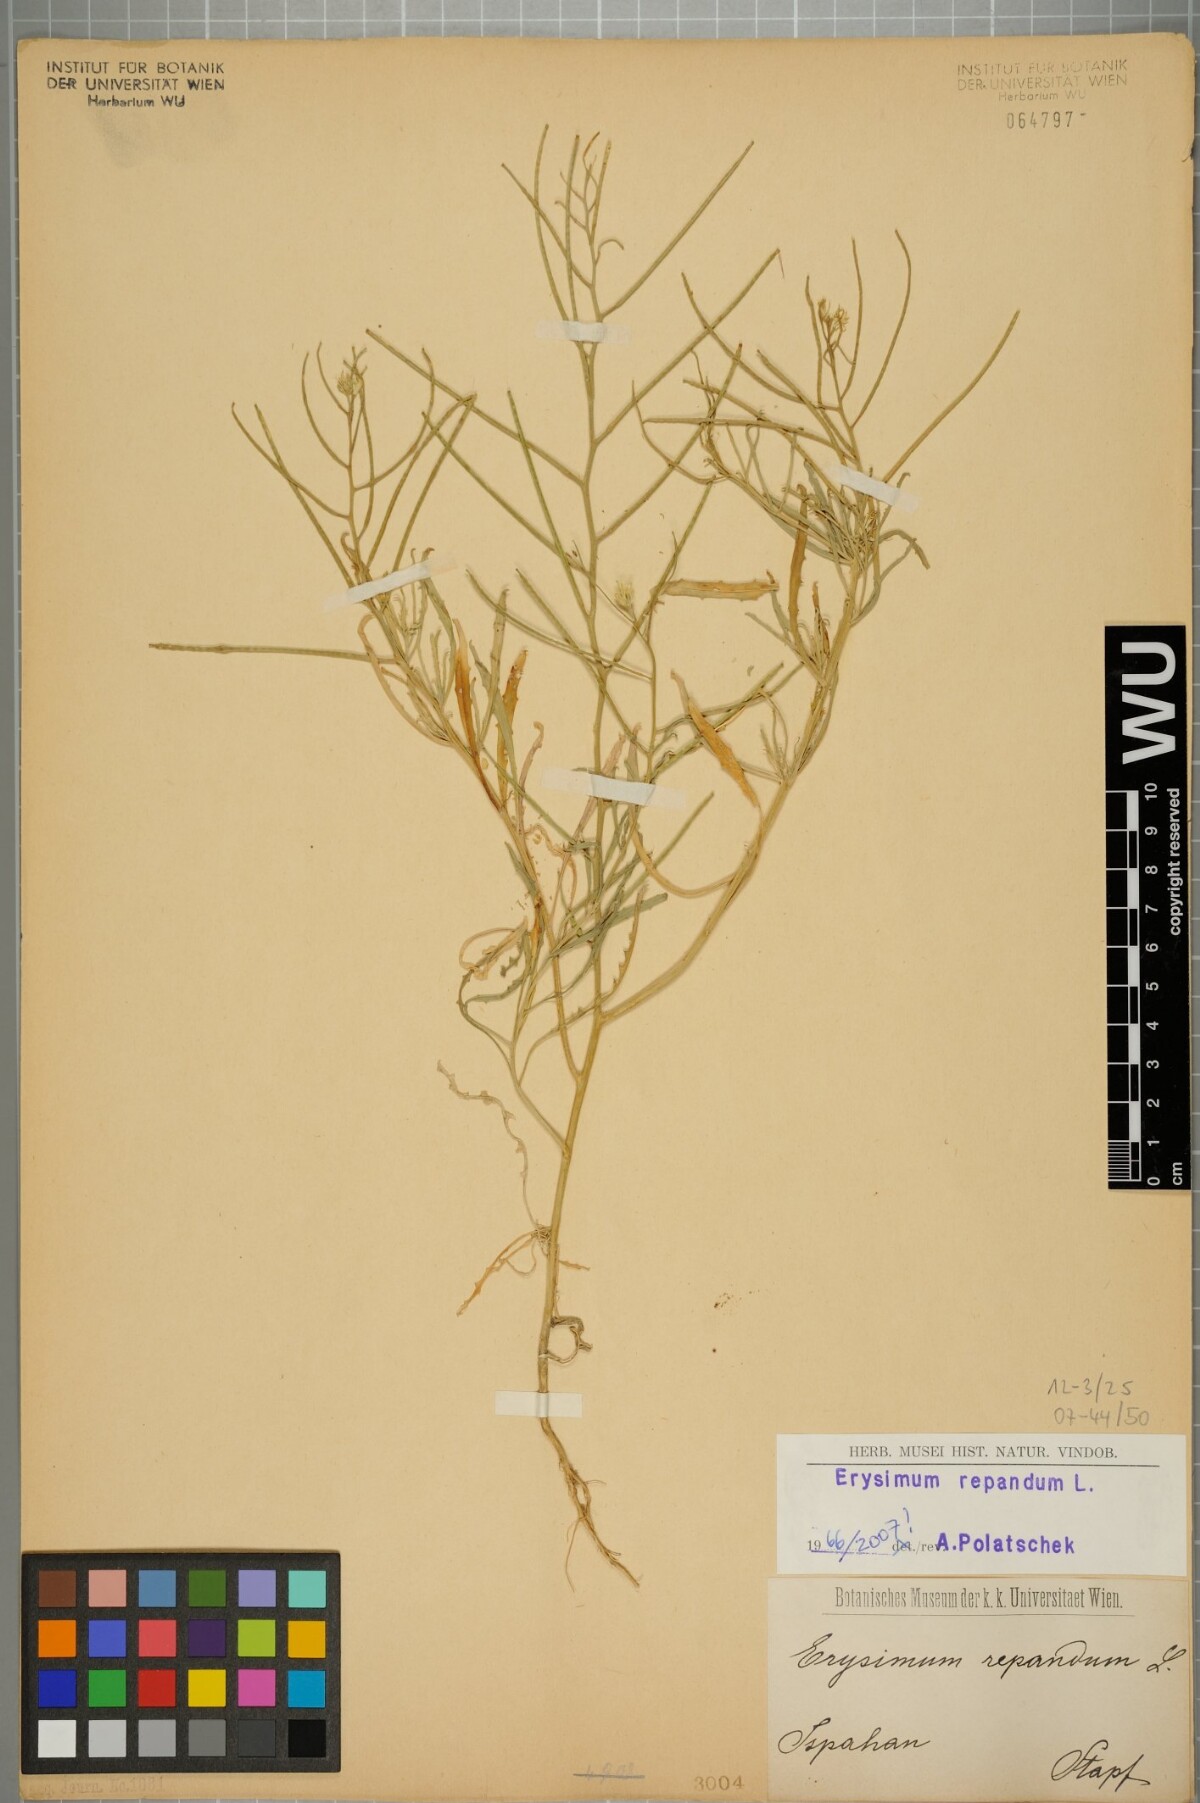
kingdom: Plantae
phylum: Tracheophyta
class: Magnoliopsida
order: Brassicales
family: Brassicaceae
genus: Erysimum
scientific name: Erysimum repandum
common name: Spreading wallflower
